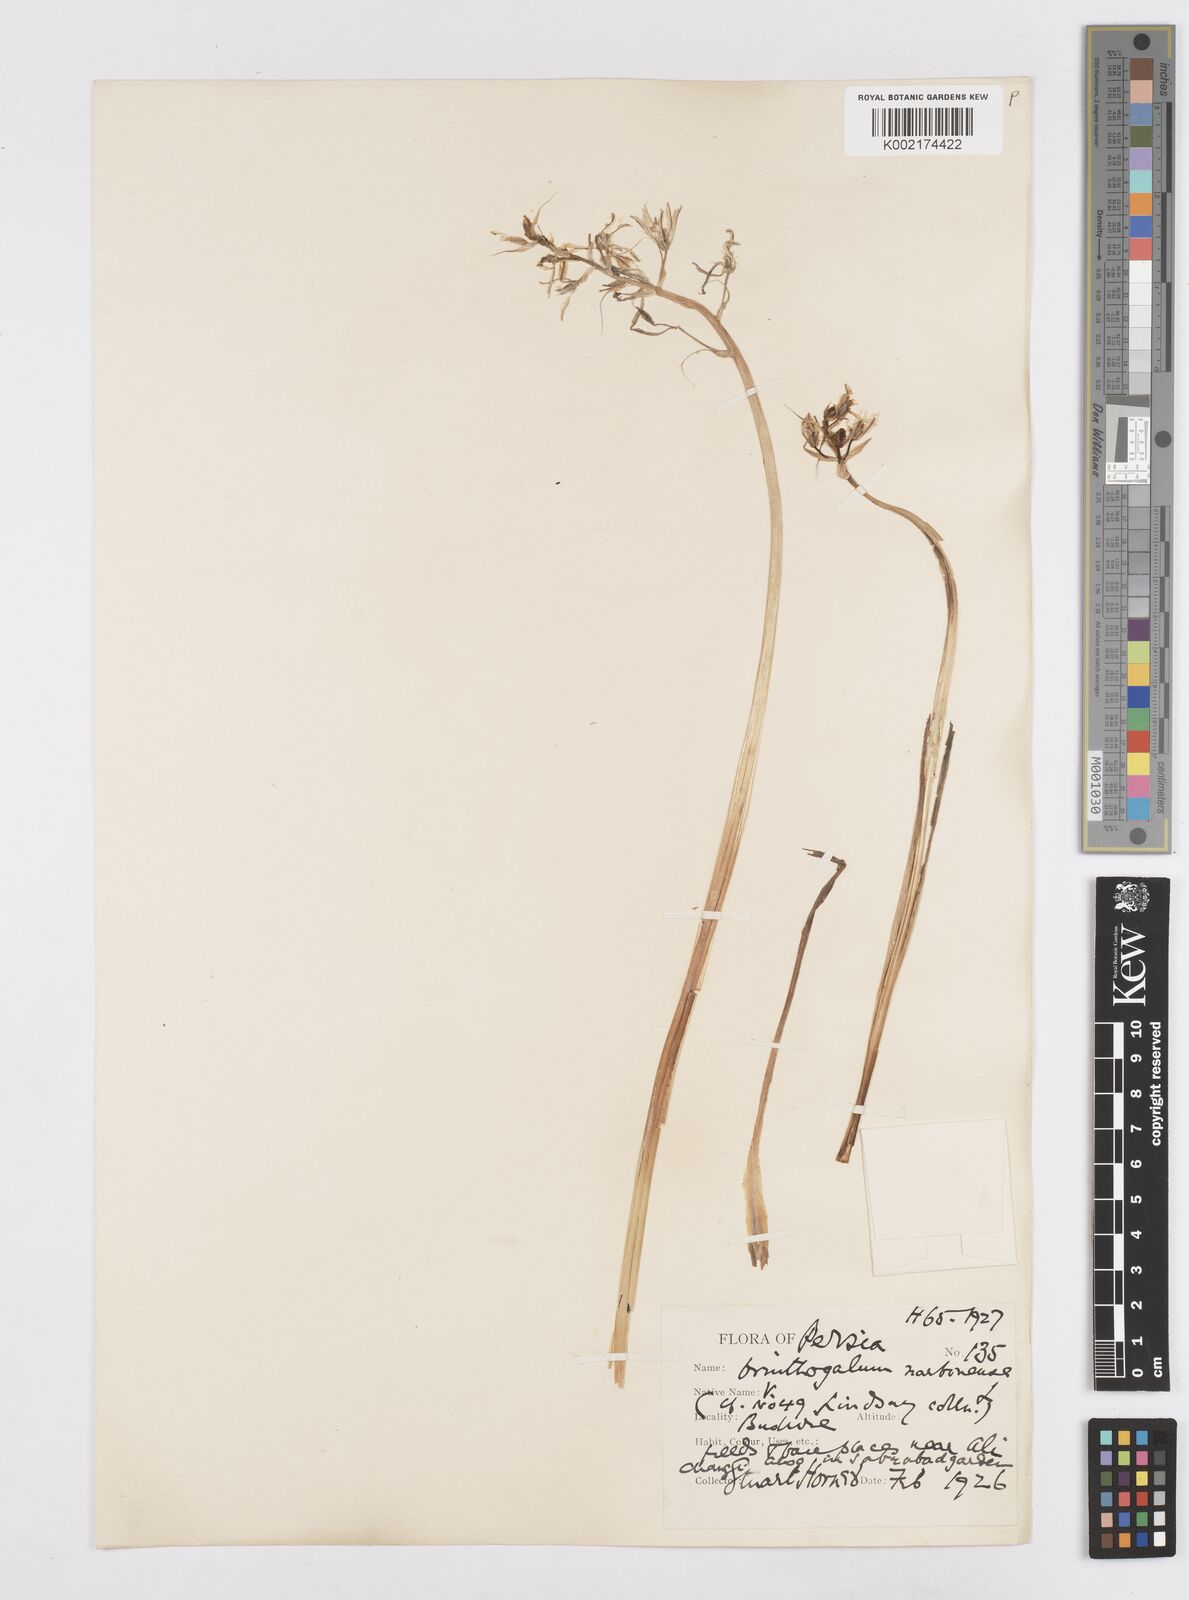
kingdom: Plantae
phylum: Tracheophyta
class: Liliopsida
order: Asparagales
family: Asparagaceae
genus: Ornithogalum
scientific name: Ornithogalum narbonense
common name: Bath-asparagus
